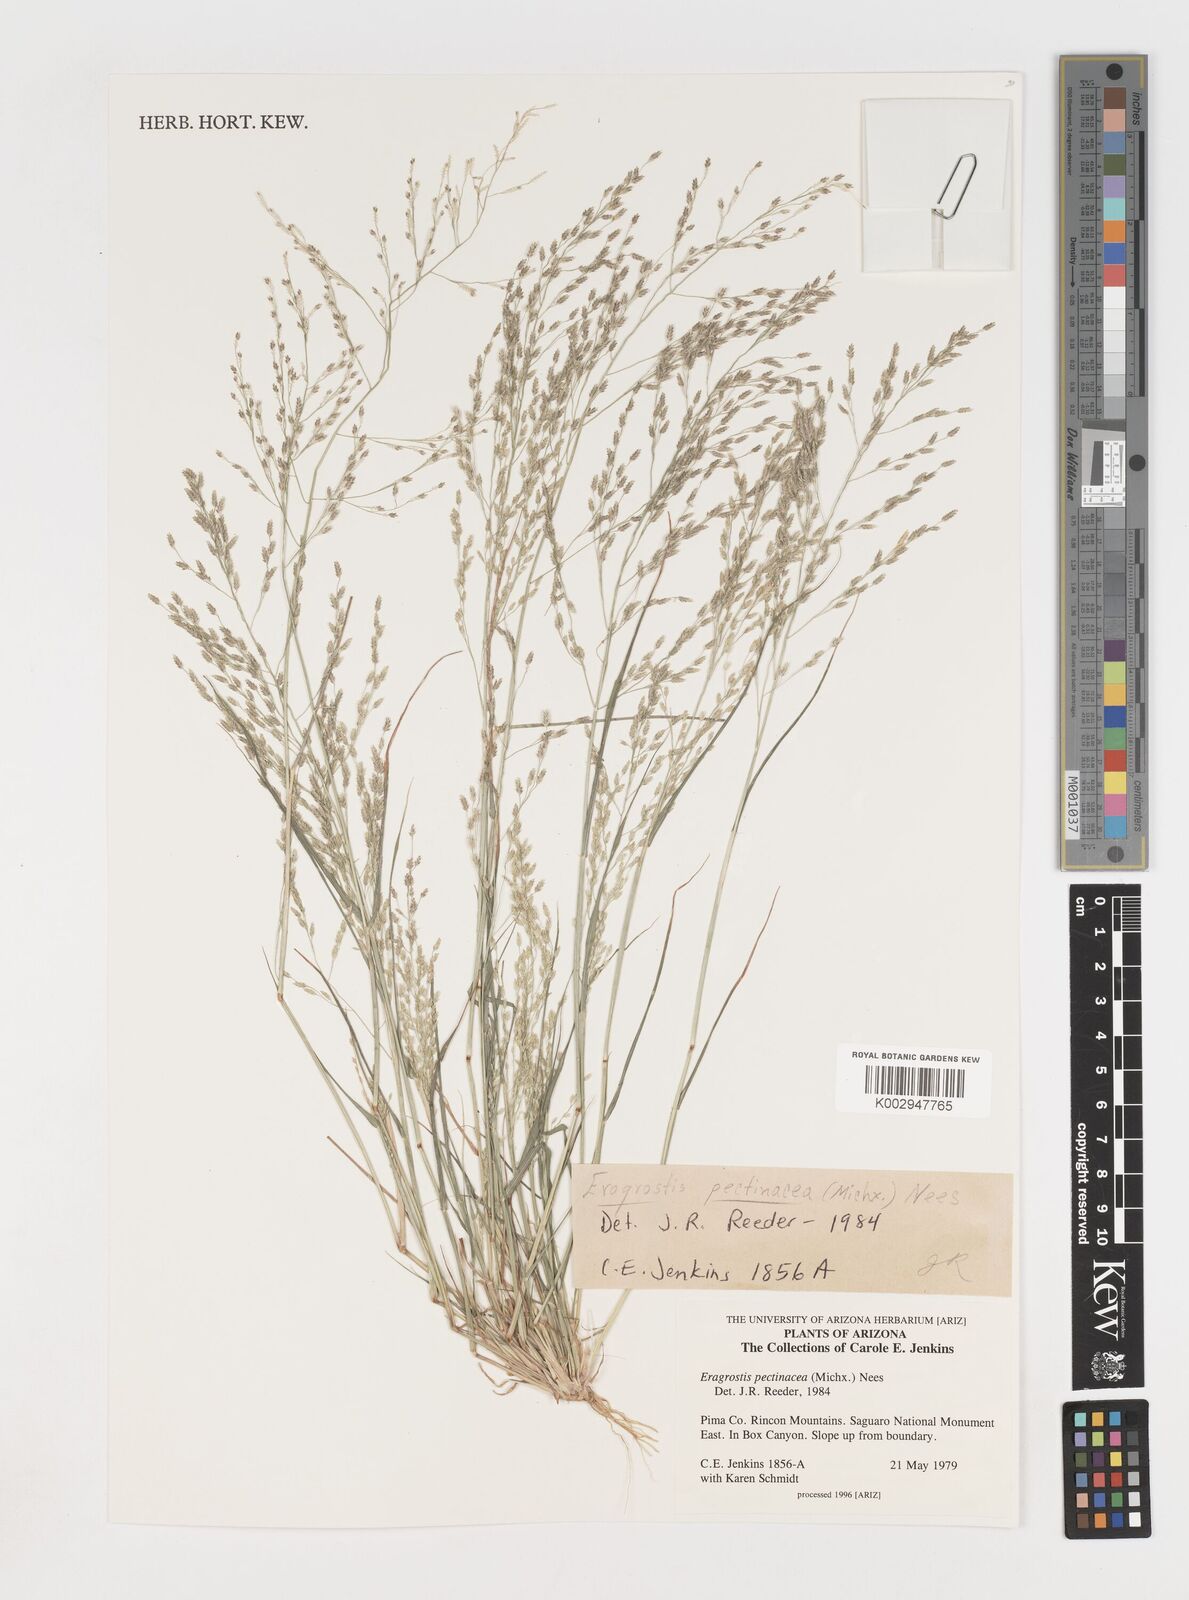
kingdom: Plantae
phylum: Tracheophyta
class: Liliopsida
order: Poales
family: Poaceae
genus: Eragrostis
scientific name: Eragrostis pectinacea
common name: Tufted lovegrass
